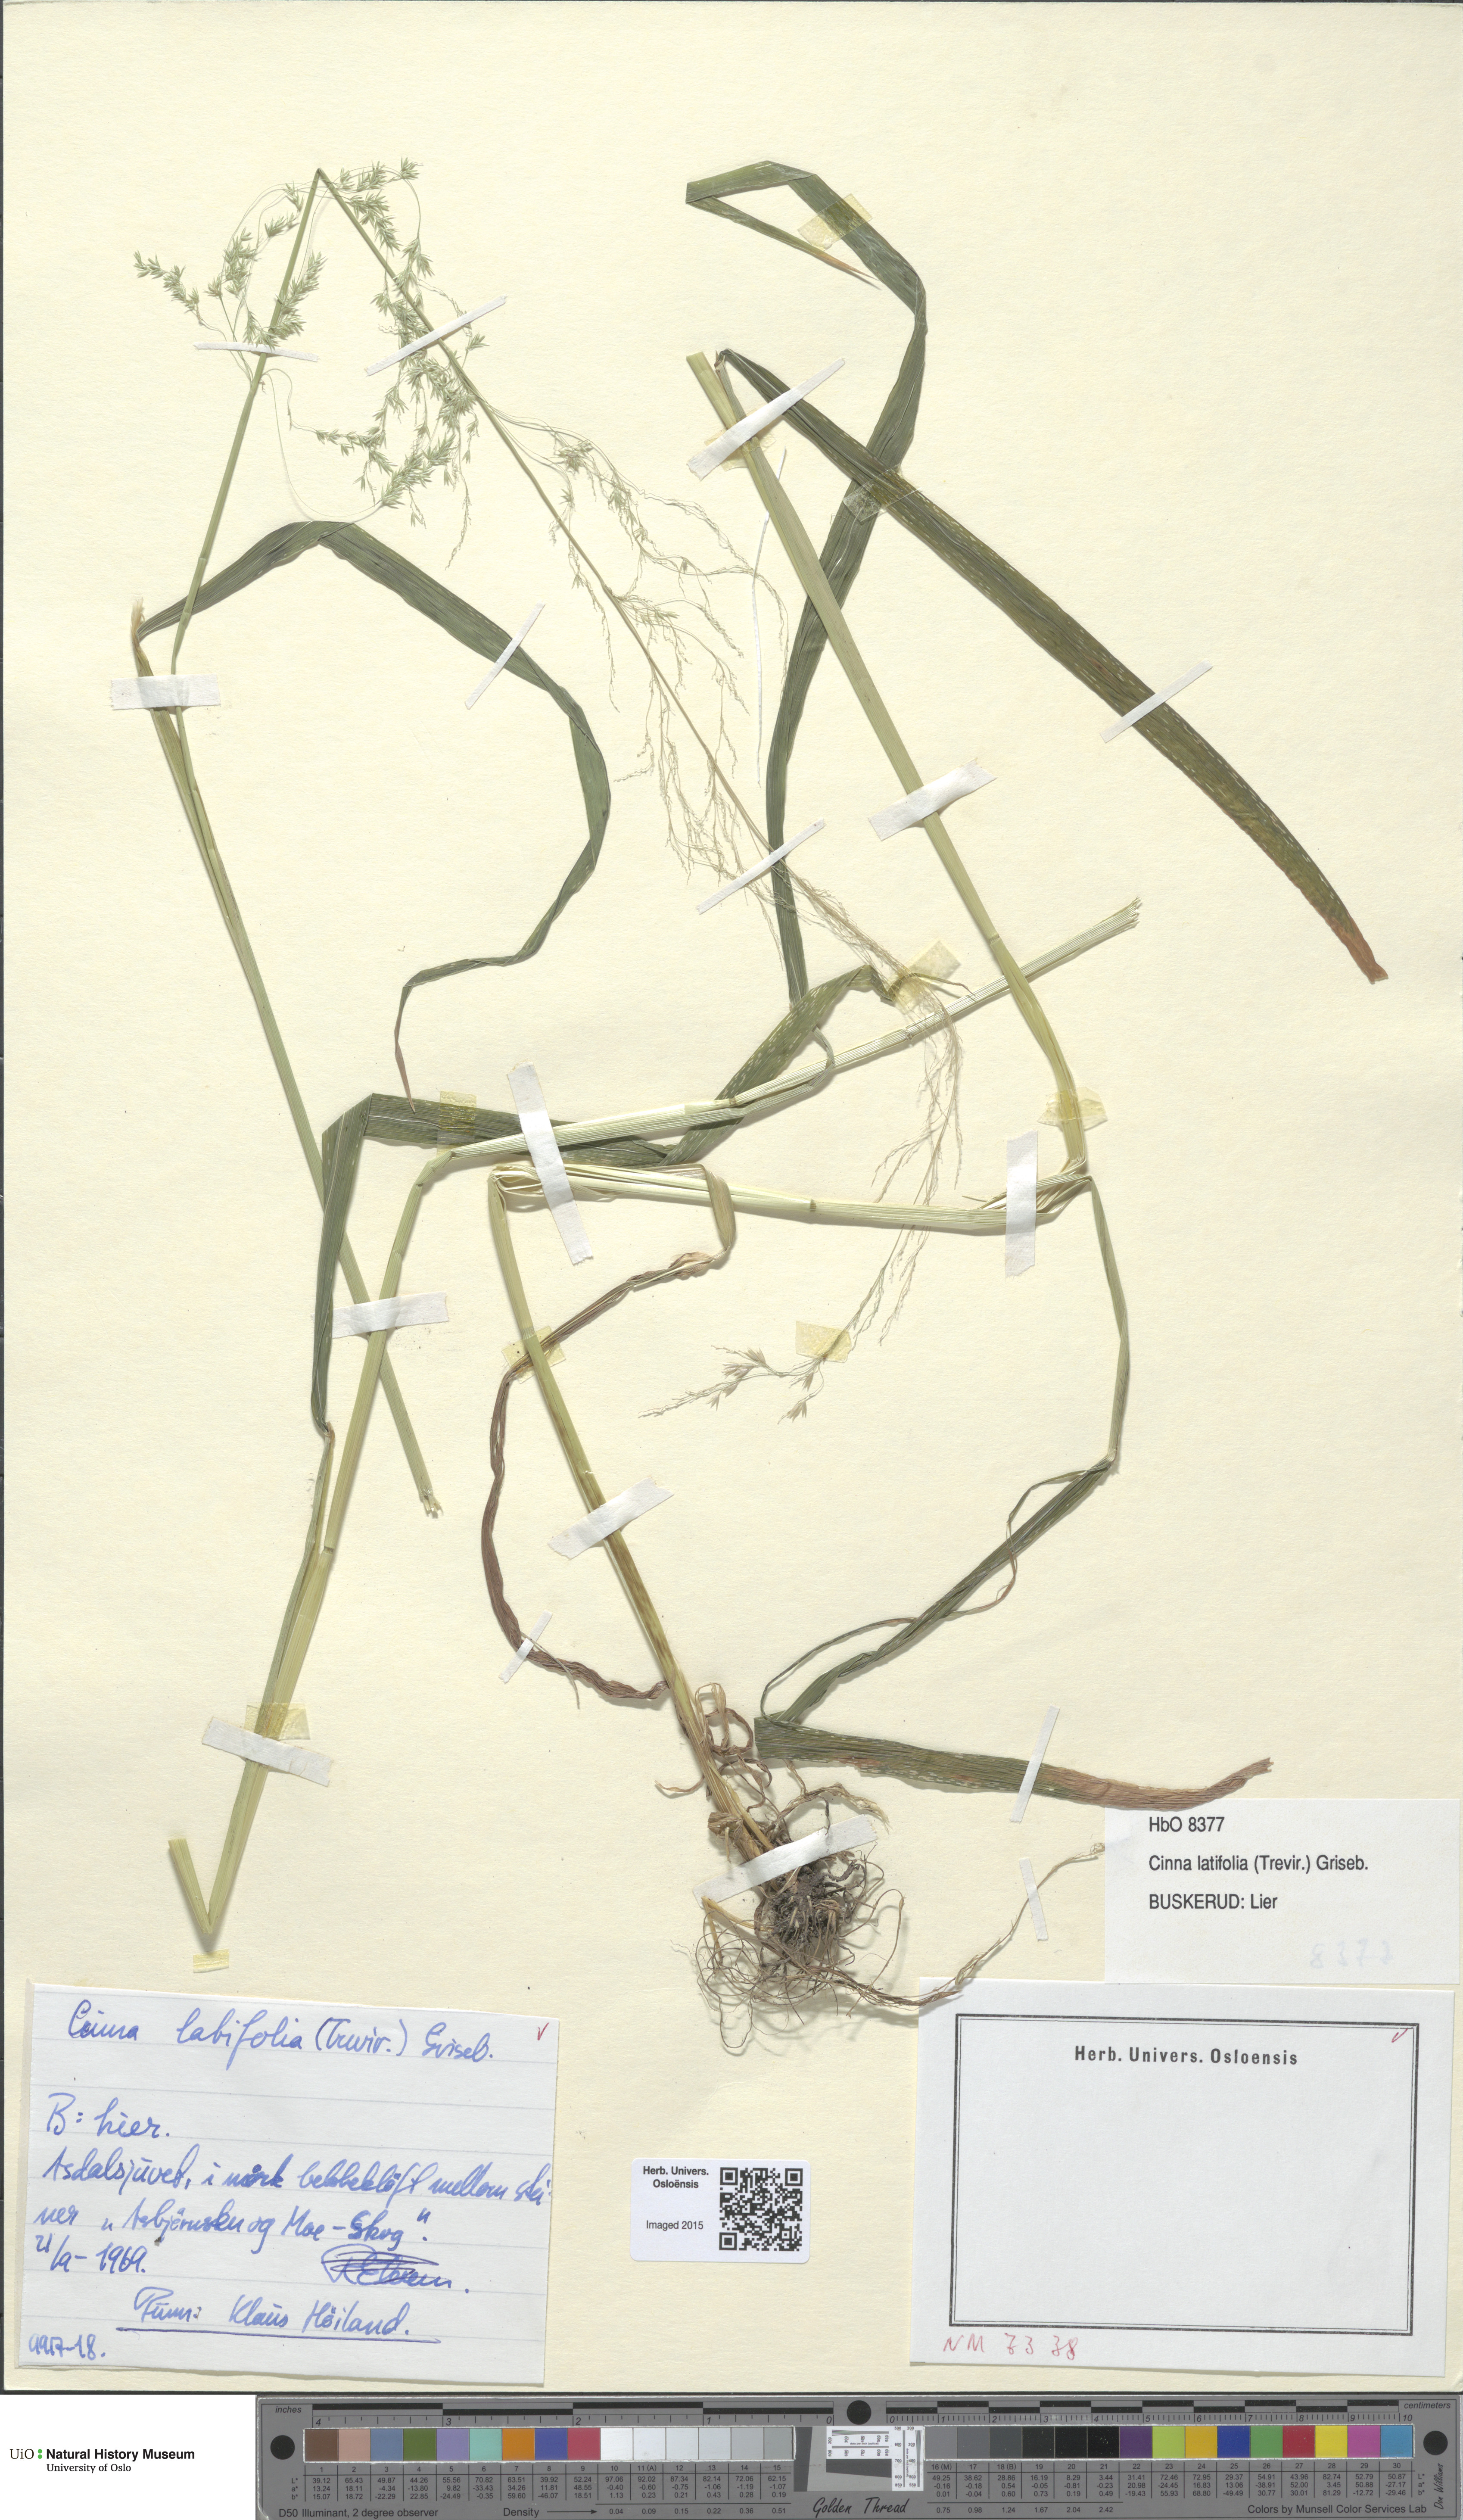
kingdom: Plantae
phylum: Tracheophyta
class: Liliopsida
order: Poales
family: Poaceae
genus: Cinna
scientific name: Cinna latifolia
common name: Drooping woodreed
